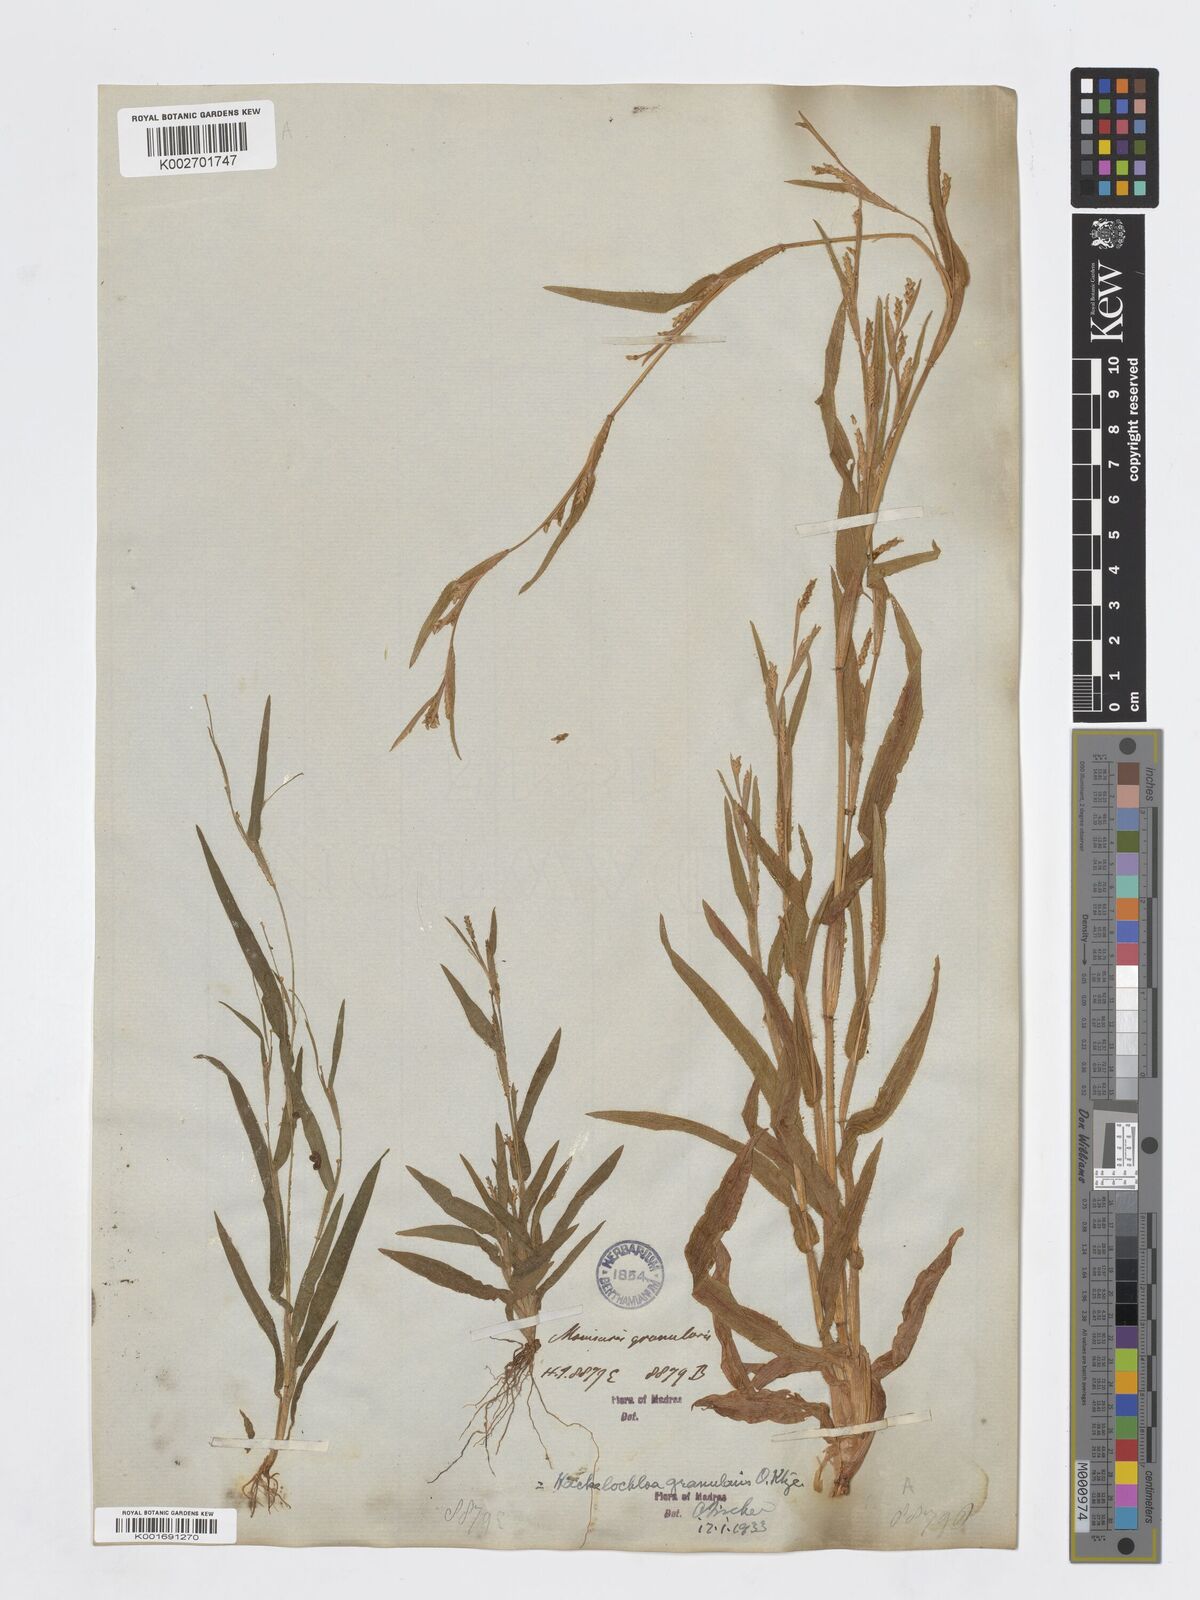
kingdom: Plantae
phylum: Tracheophyta
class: Liliopsida
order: Poales
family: Poaceae
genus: Hackelochloa
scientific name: Hackelochloa granularis
